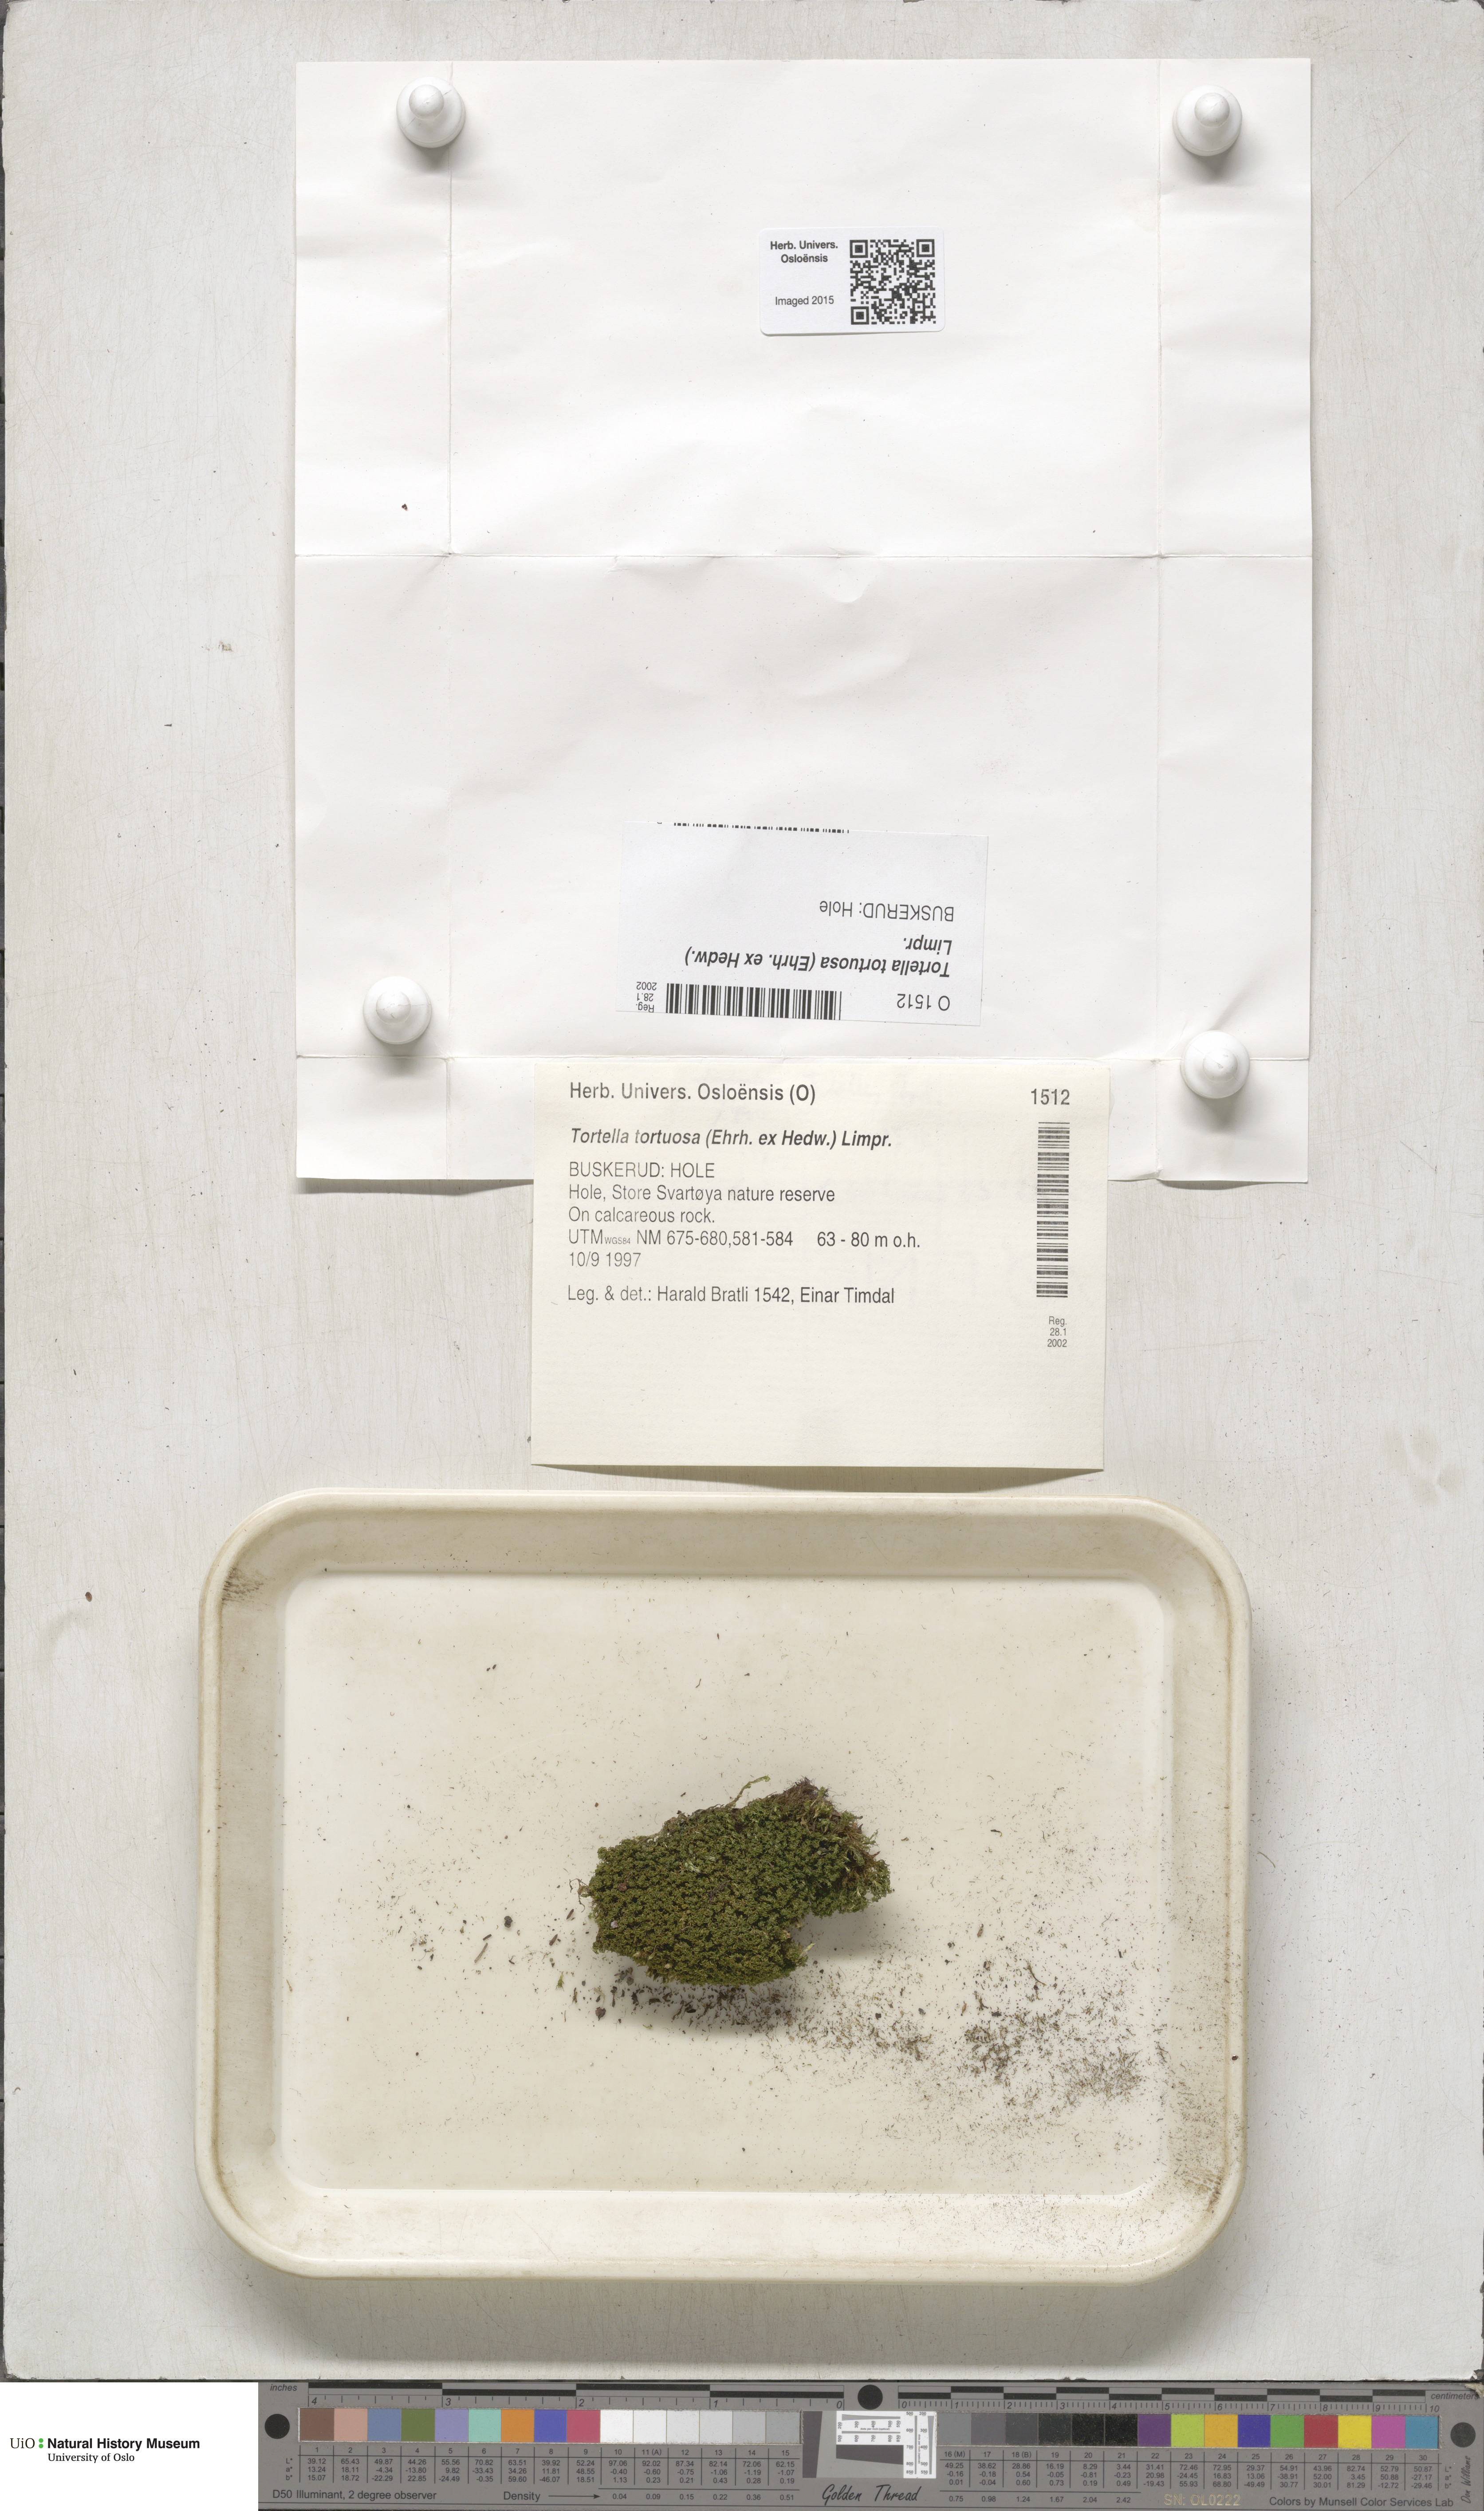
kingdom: Plantae
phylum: Bryophyta
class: Bryopsida
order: Pottiales
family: Pottiaceae
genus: Tortella
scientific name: Tortella tortuosa
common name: Frizzled crisp moss
